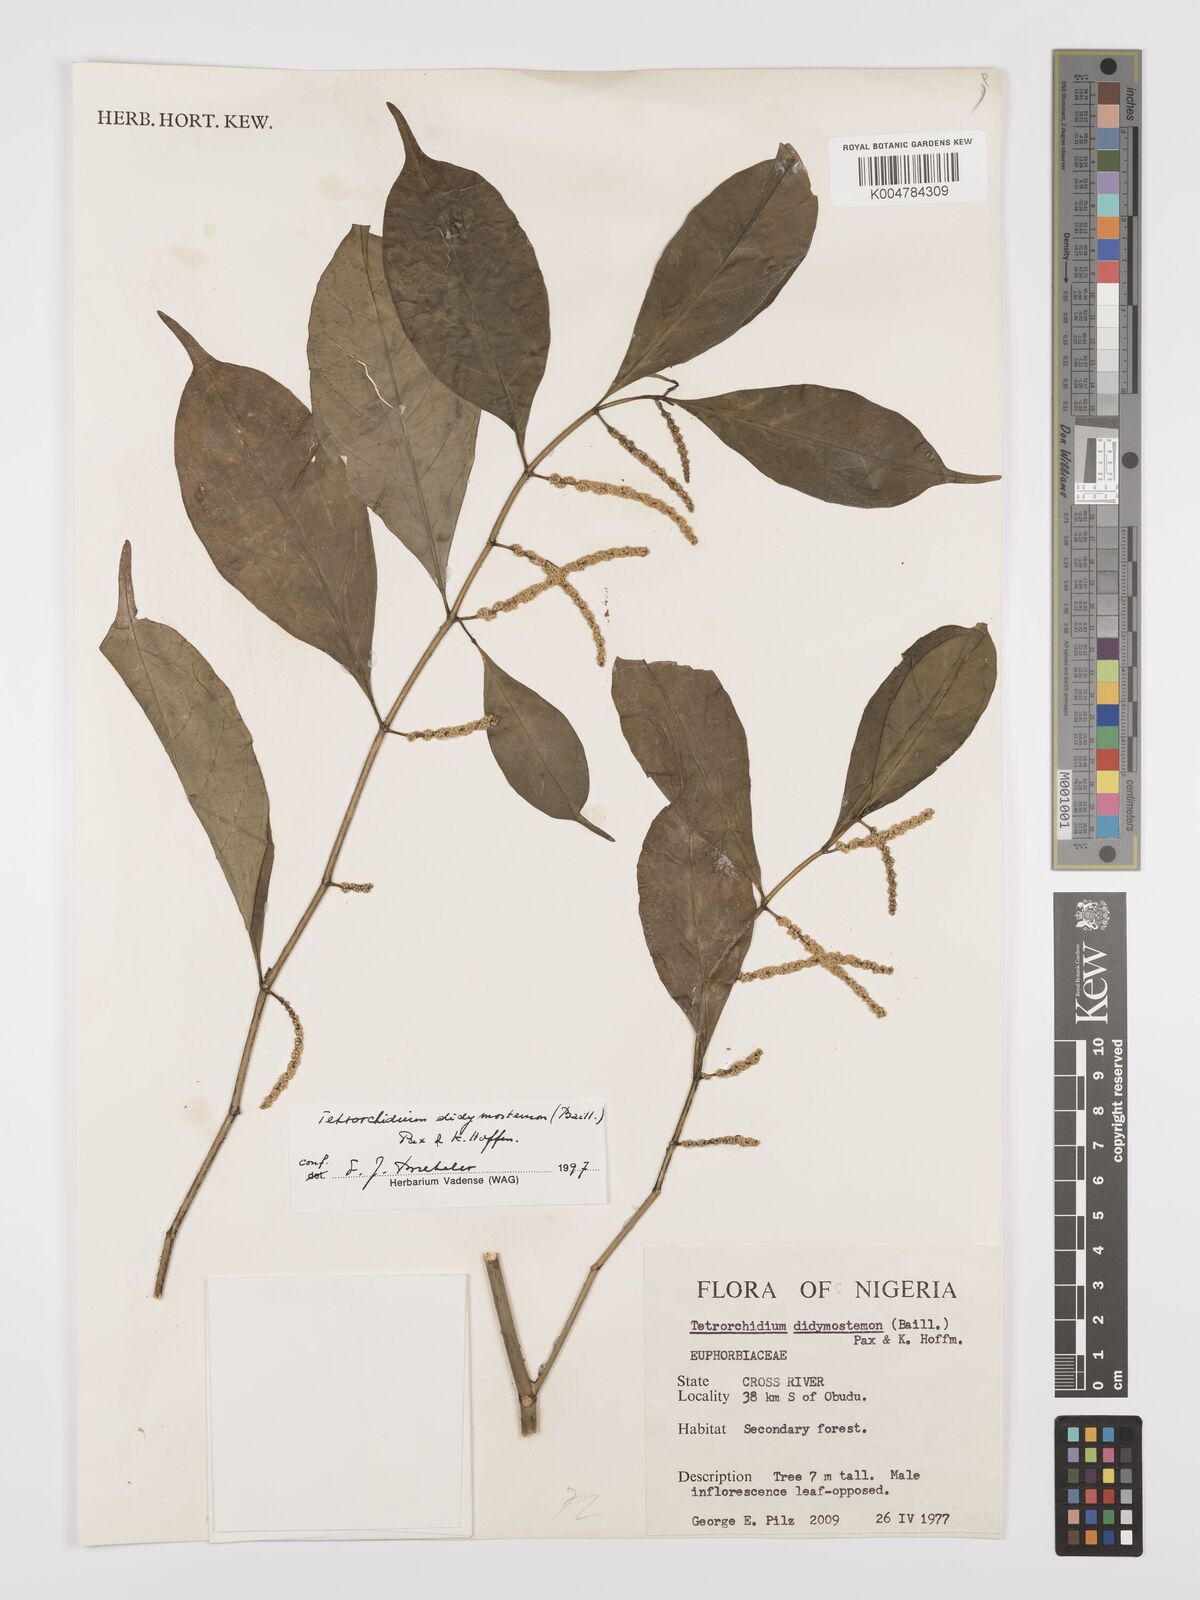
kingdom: Plantae
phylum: Tracheophyta
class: Magnoliopsida
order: Malpighiales
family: Euphorbiaceae
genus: Tetrorchidium
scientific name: Tetrorchidium didymostemon
